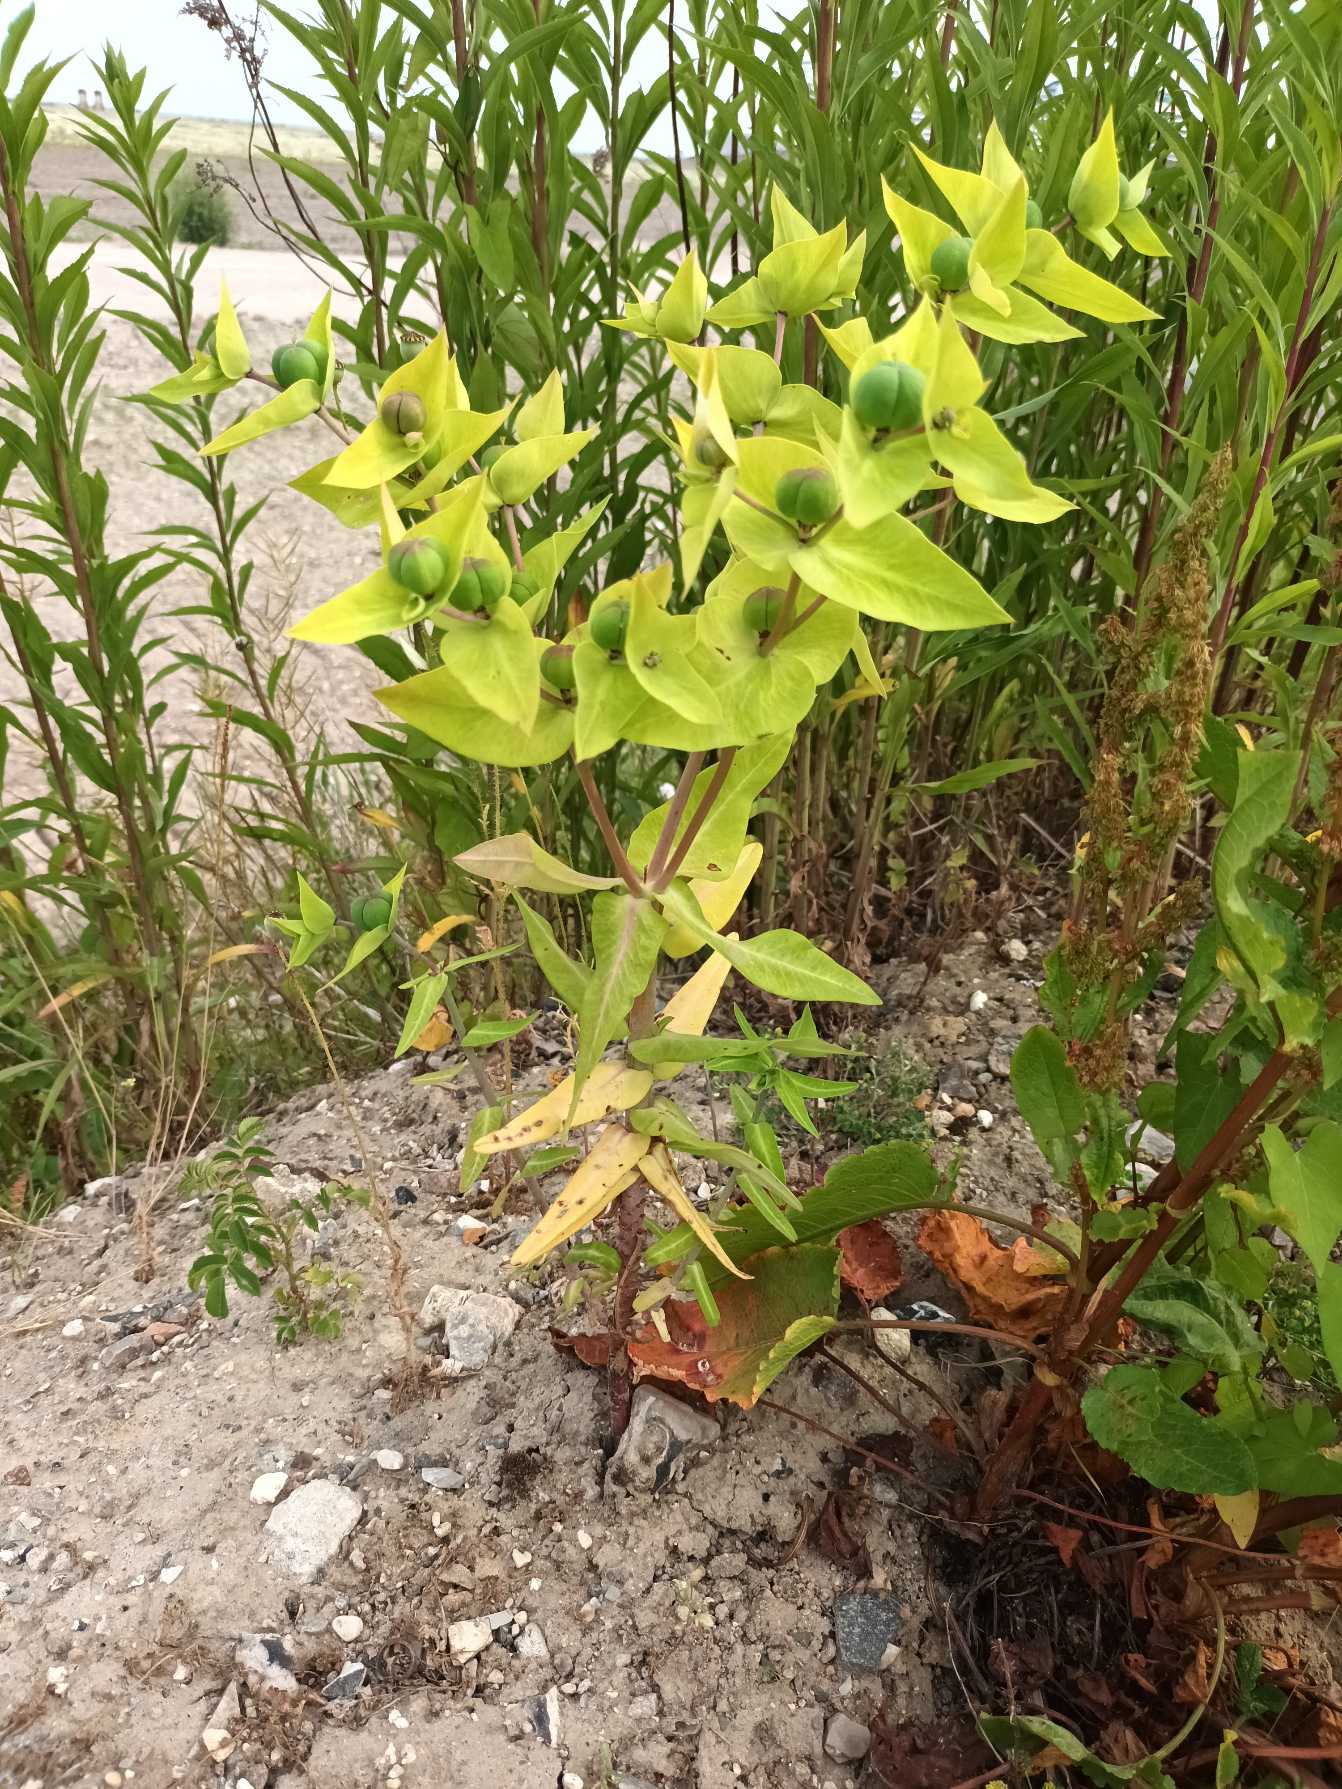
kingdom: Plantae
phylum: Tracheophyta
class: Magnoliopsida
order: Malpighiales
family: Euphorbiaceae
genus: Euphorbia
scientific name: Euphorbia lathyris
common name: Kors-vortemælk
